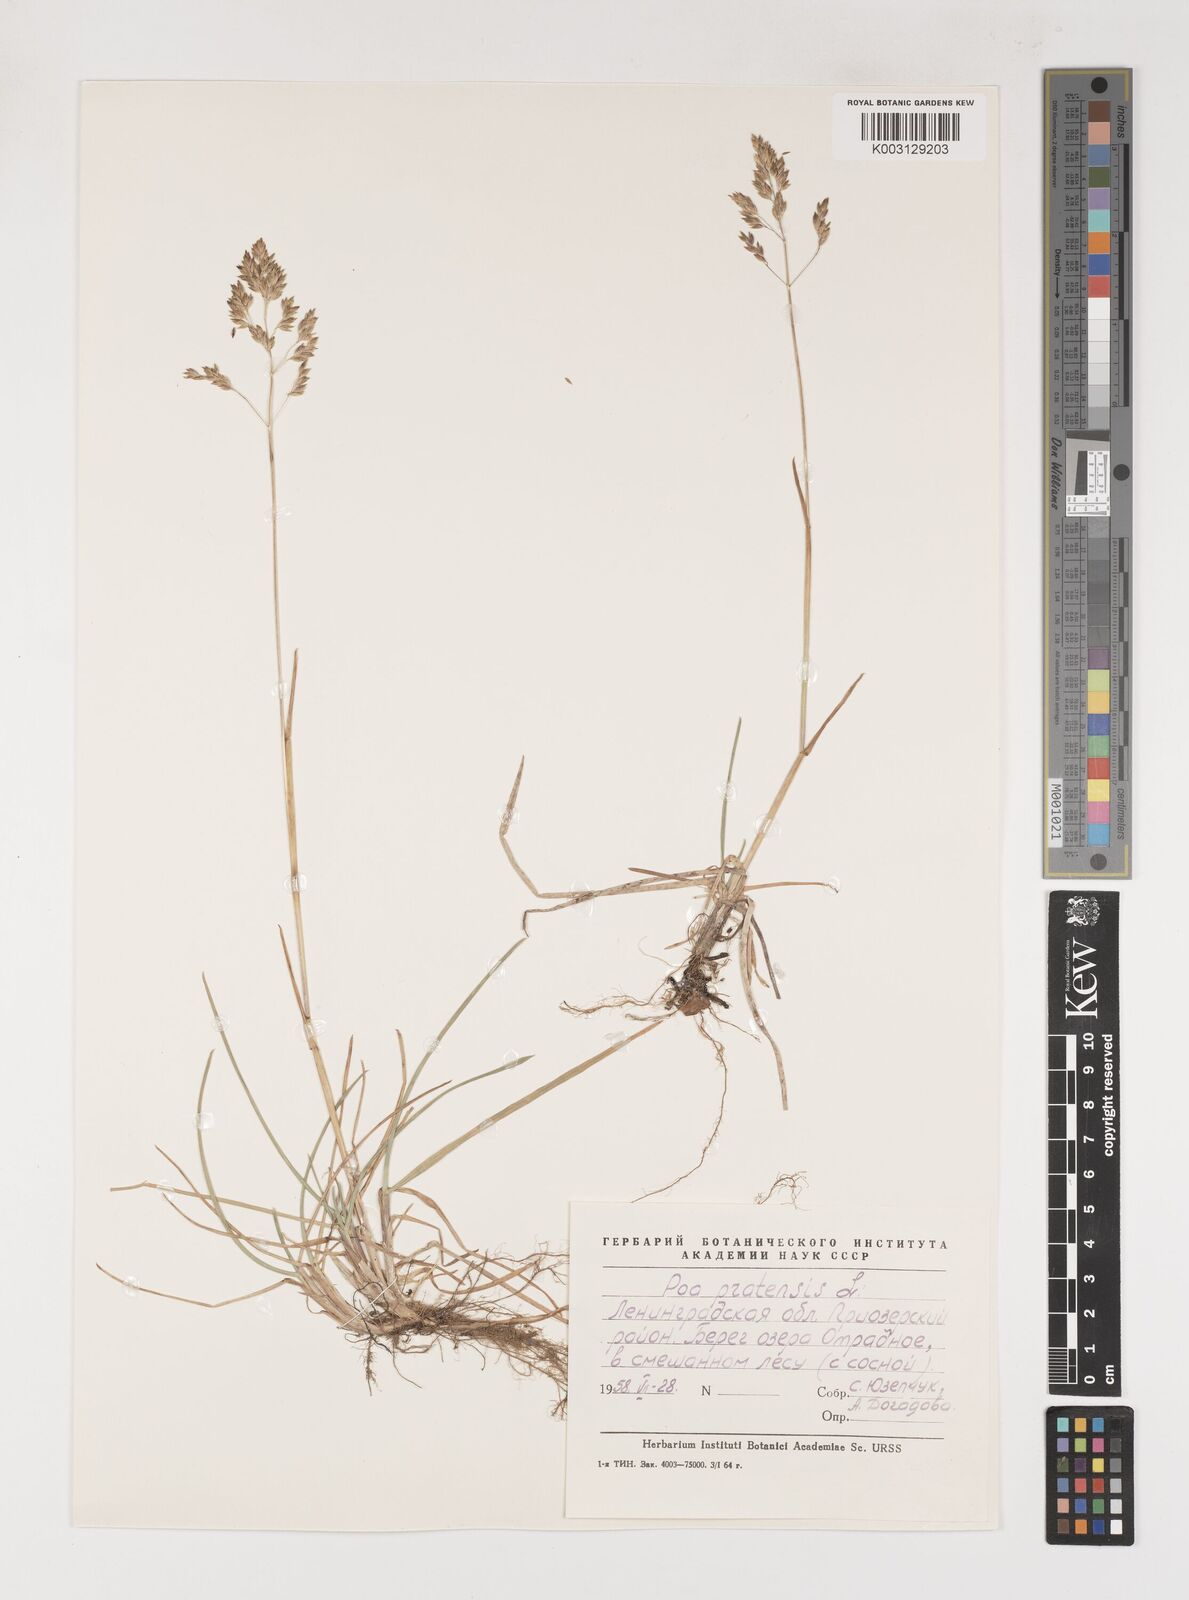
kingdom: Plantae
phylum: Tracheophyta
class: Liliopsida
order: Poales
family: Poaceae
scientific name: Poaceae
